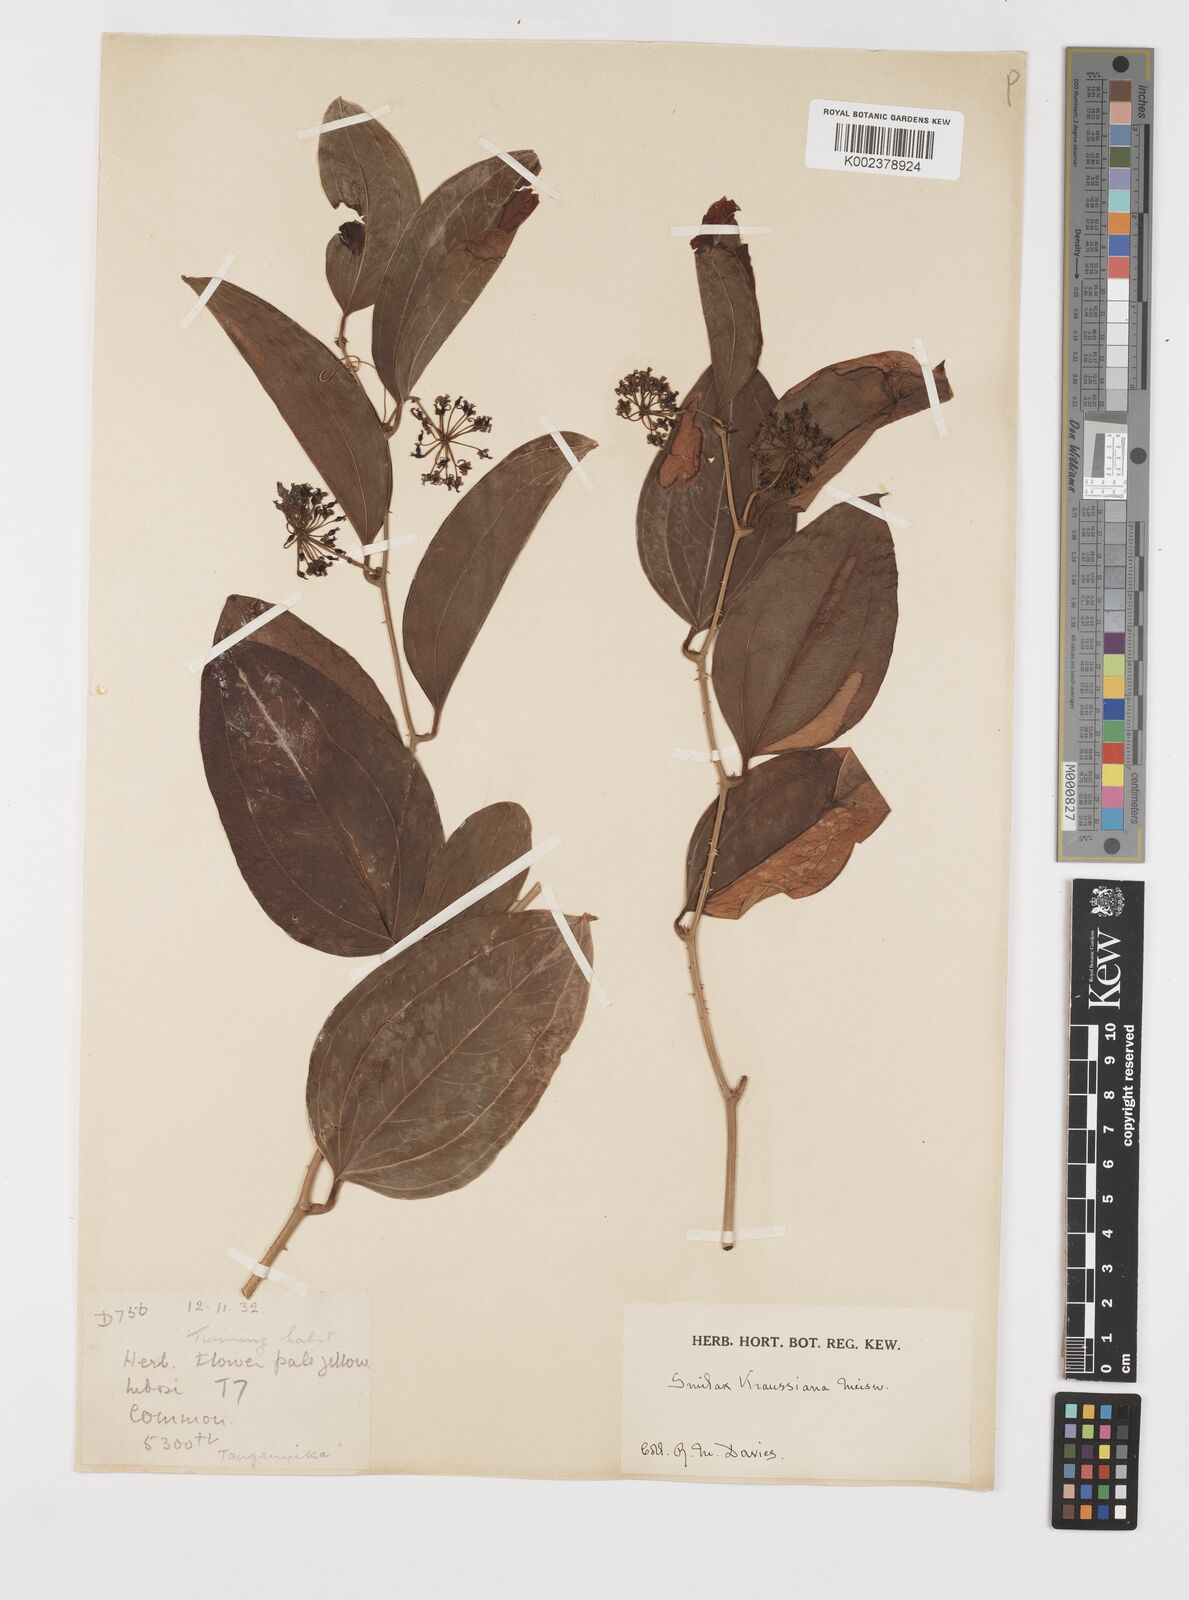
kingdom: Plantae
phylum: Tracheophyta
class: Liliopsida
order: Liliales
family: Smilacaceae
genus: Smilax
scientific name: Smilax anceps
